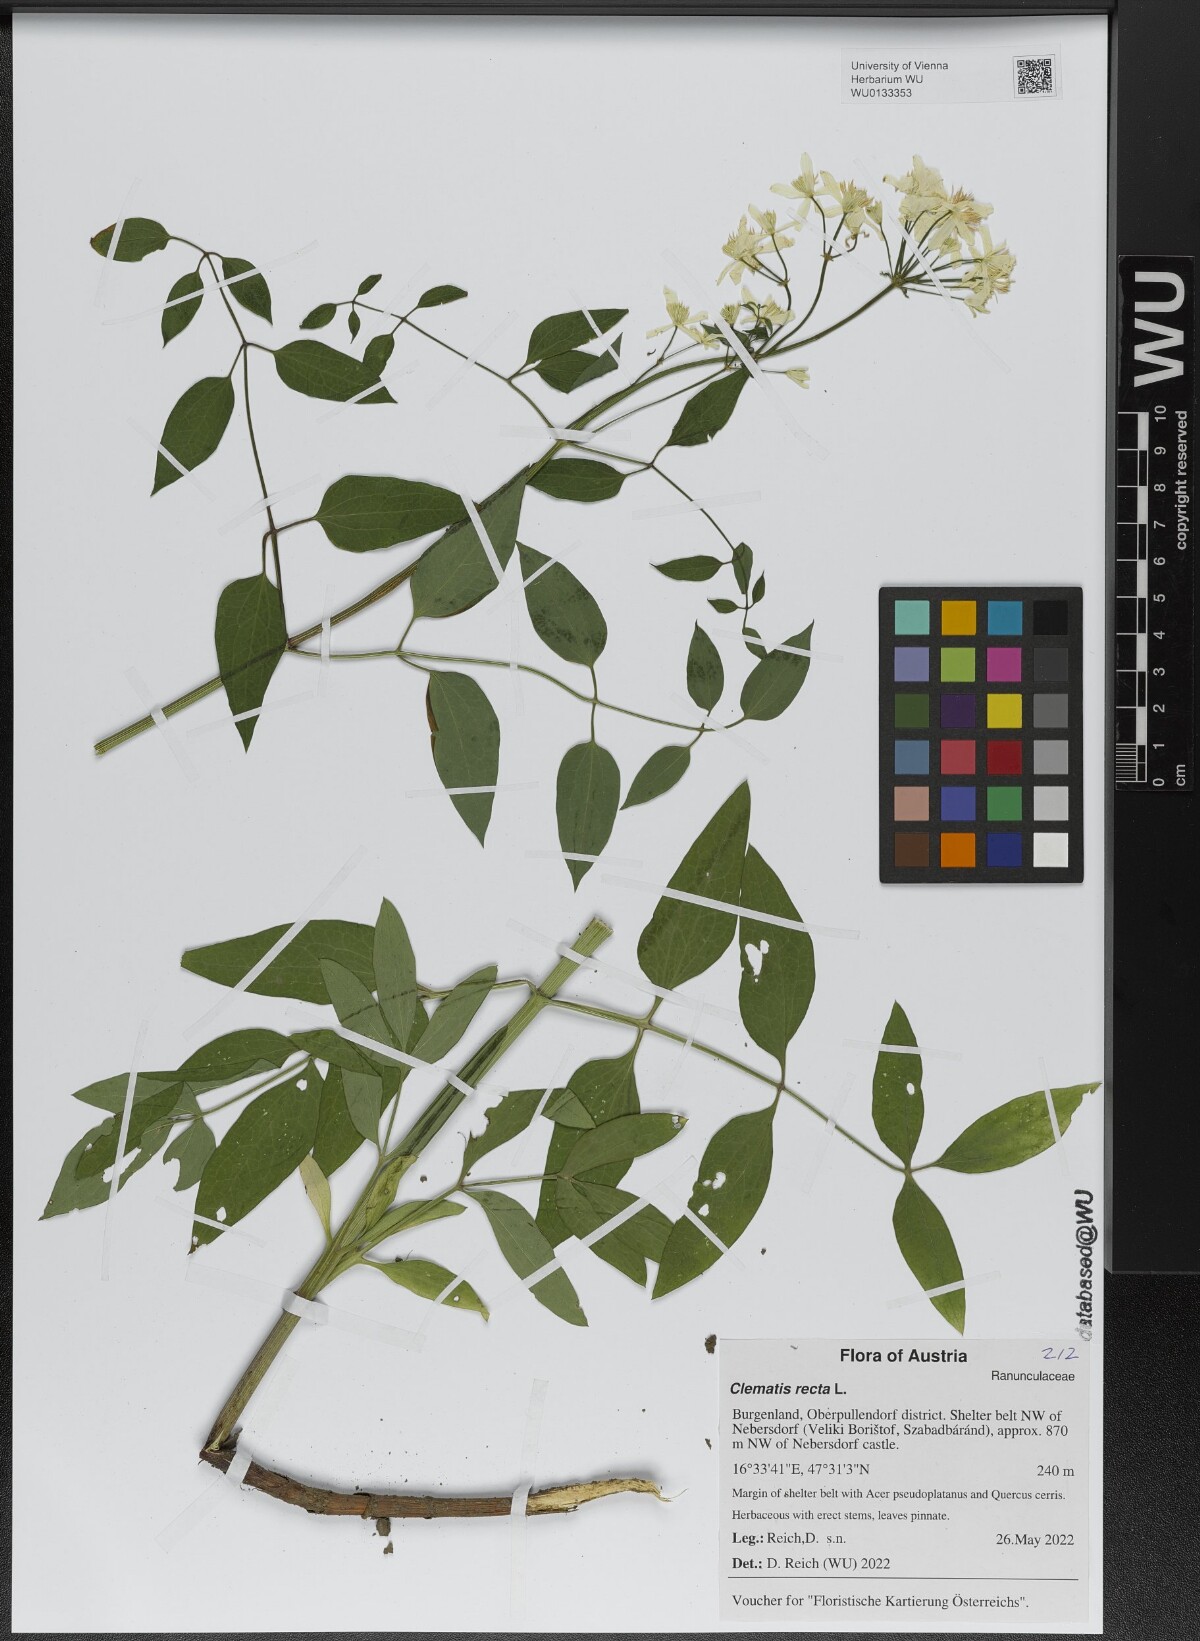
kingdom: Plantae
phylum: Tracheophyta
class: Magnoliopsida
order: Ranunculales
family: Ranunculaceae
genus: Clematis
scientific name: Clematis recta
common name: Ground clematis
